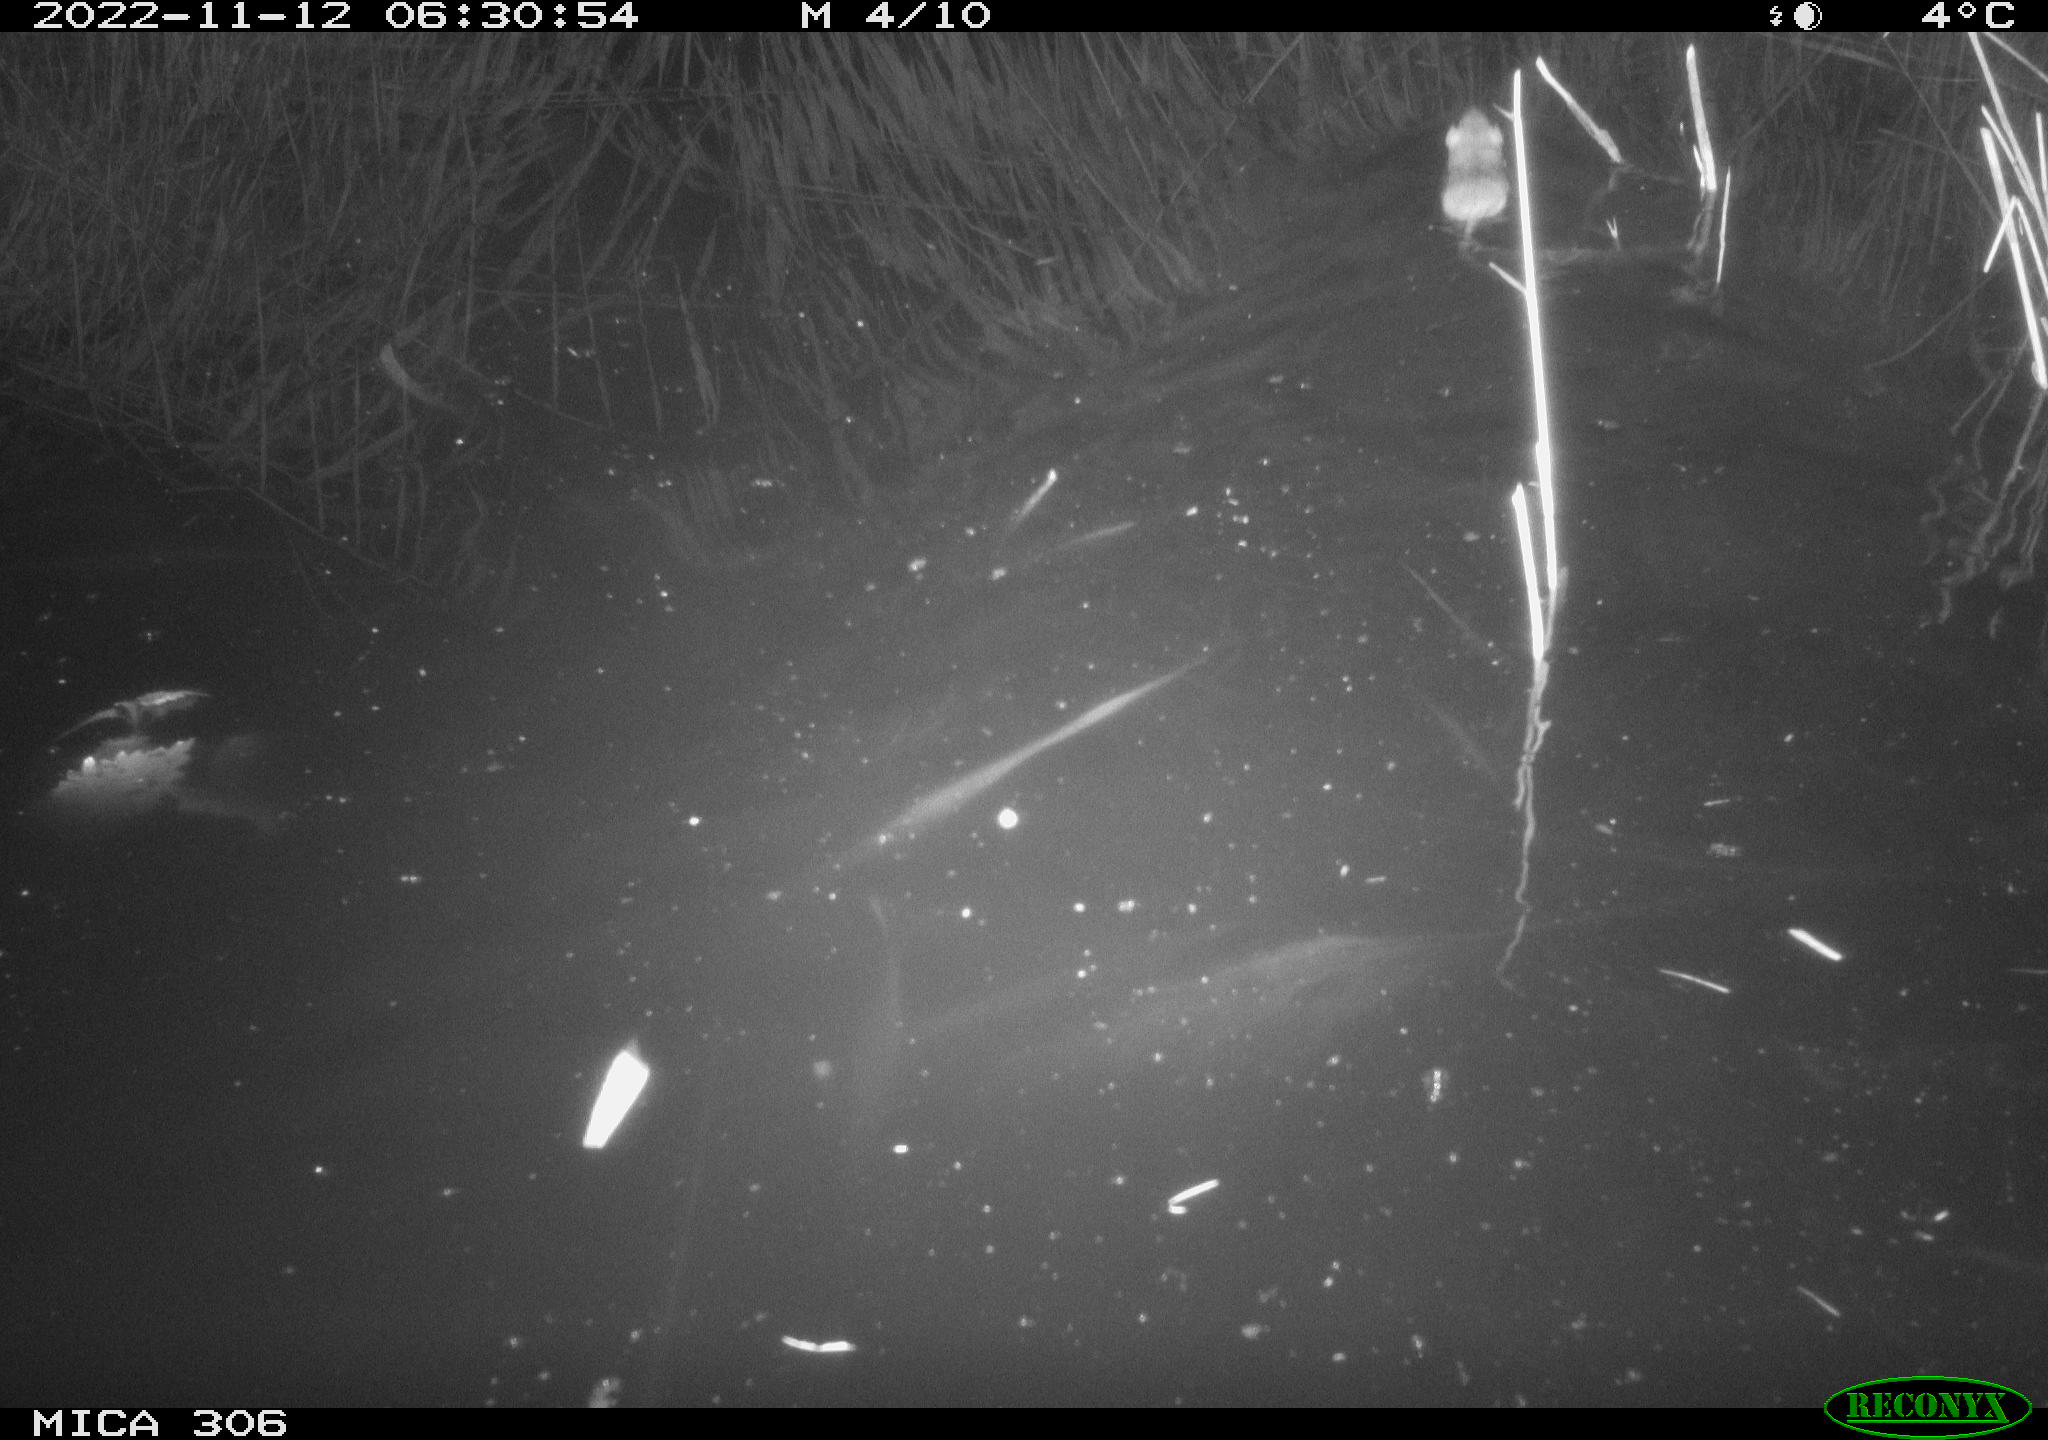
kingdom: Animalia
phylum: Chordata
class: Mammalia
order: Rodentia
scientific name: Rodentia
